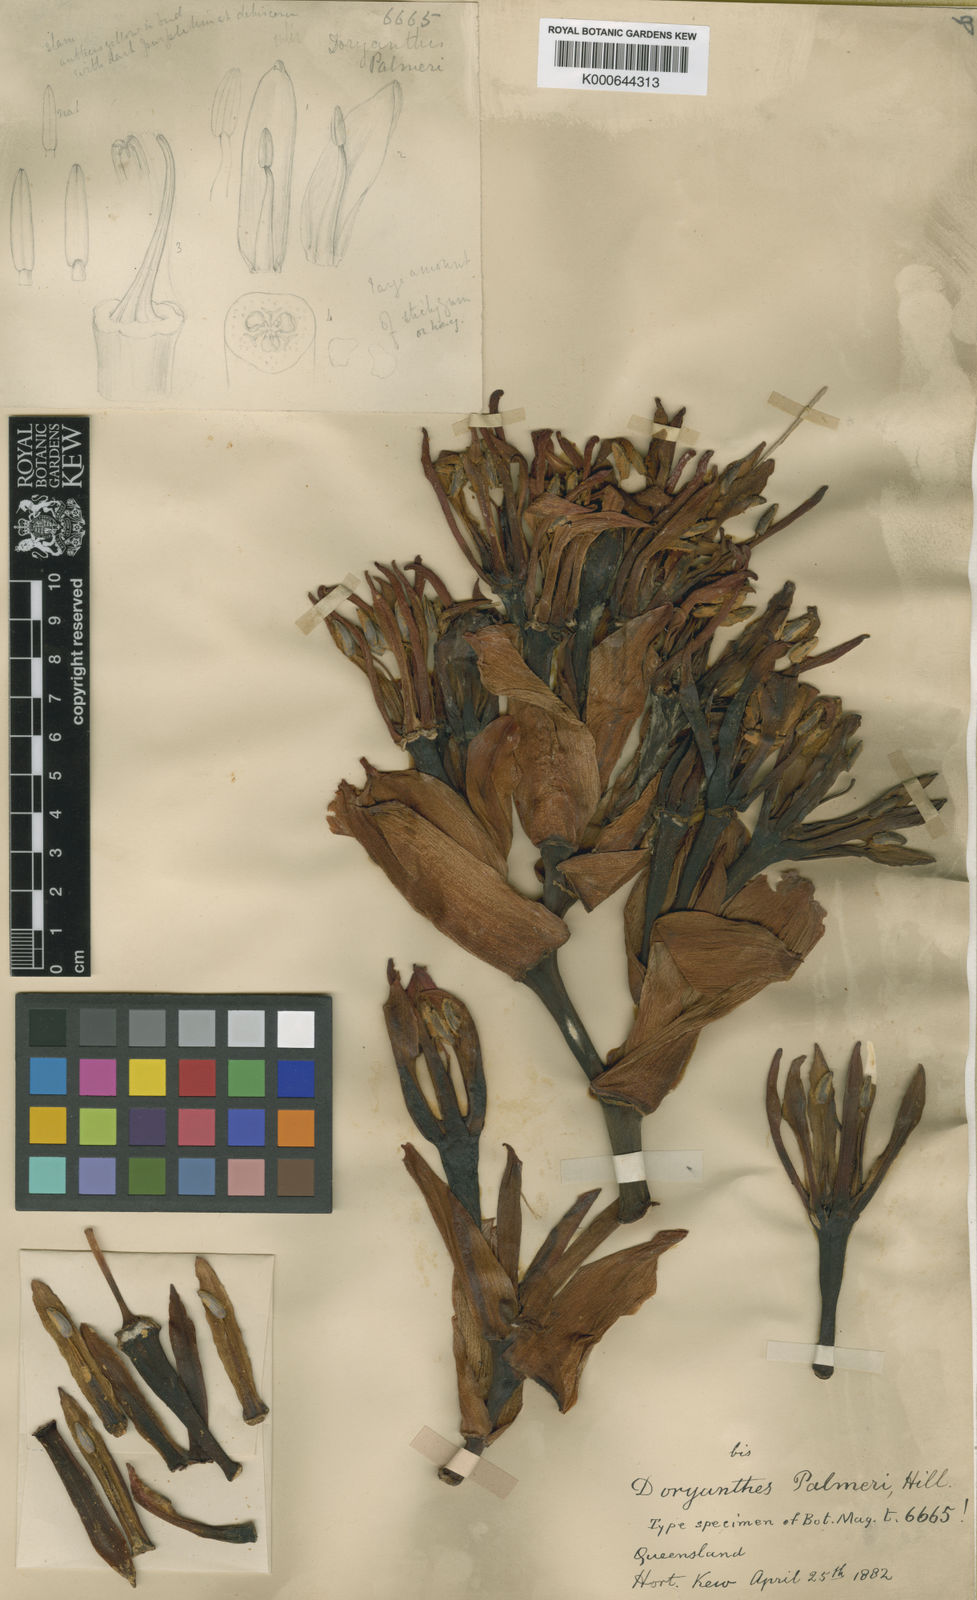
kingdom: Plantae
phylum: Tracheophyta
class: Liliopsida
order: Asparagales
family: Doryanthaceae
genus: Doryanthes
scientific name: Doryanthes
